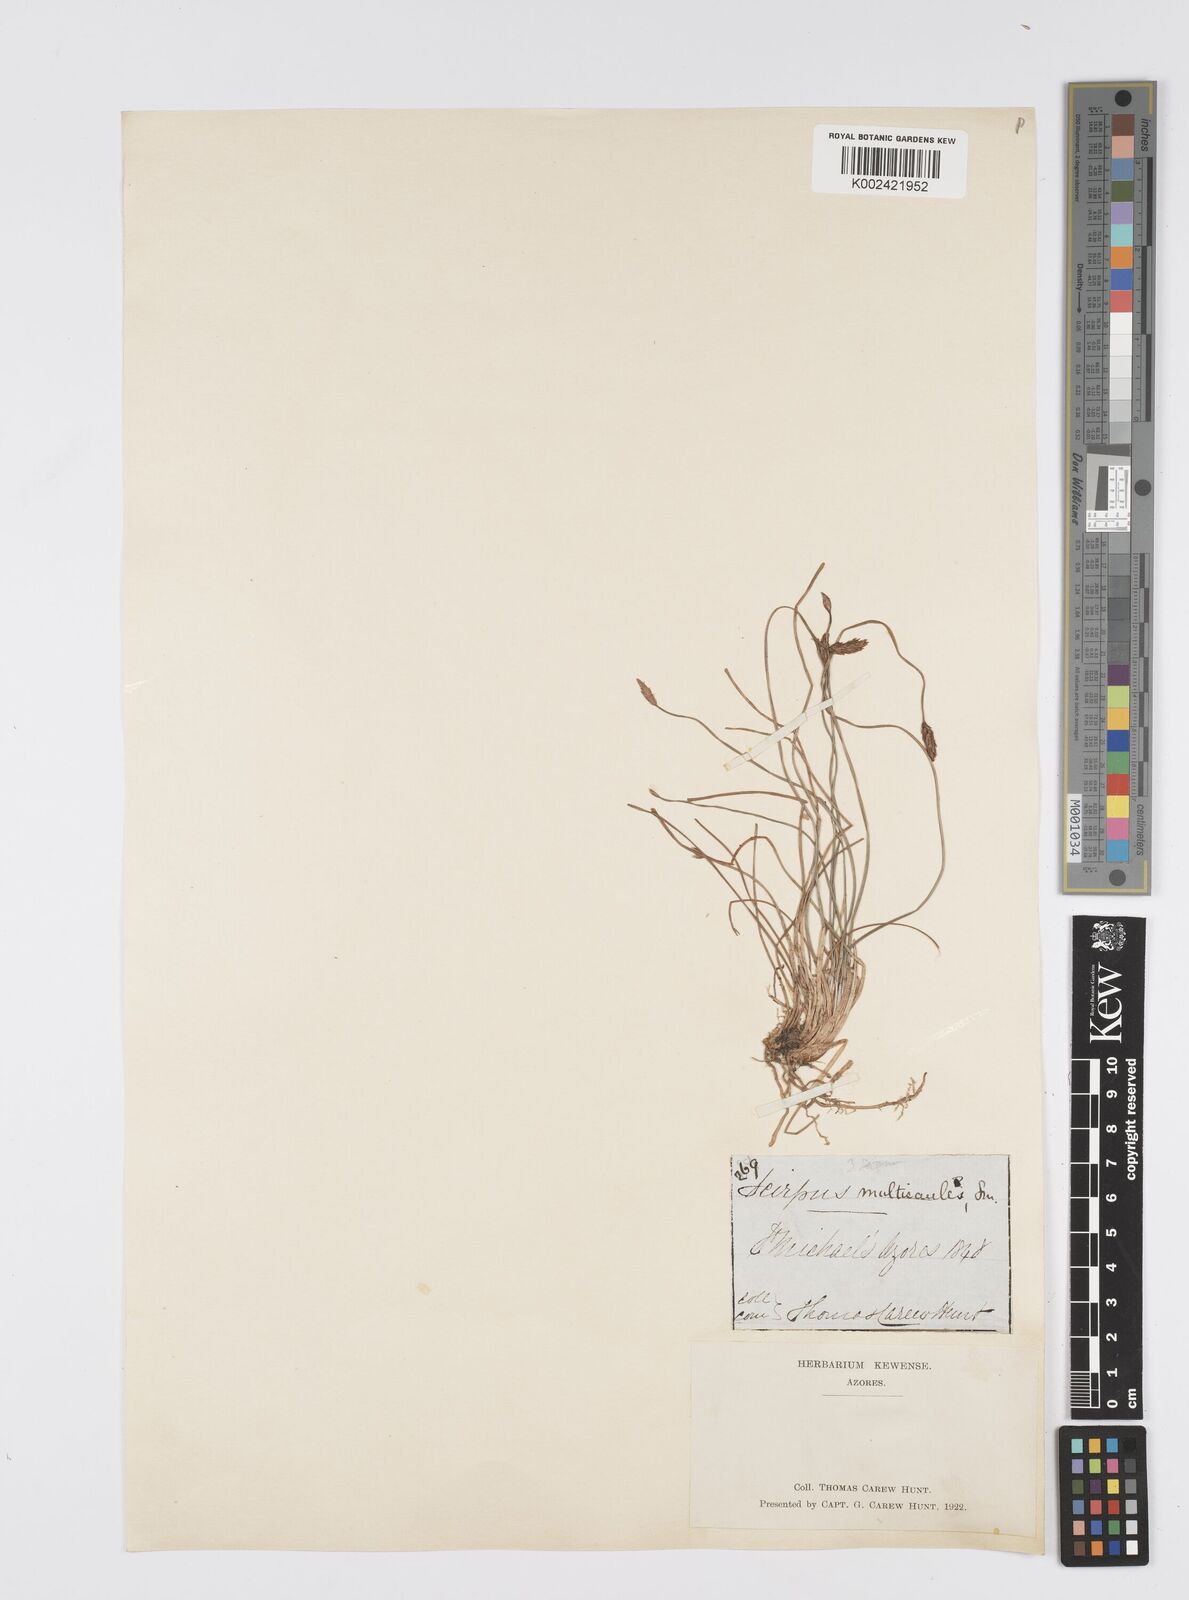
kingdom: Plantae
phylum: Tracheophyta
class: Liliopsida
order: Poales
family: Cyperaceae
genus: Eleocharis
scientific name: Eleocharis multicaulis
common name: Many-stalked spike-rush
